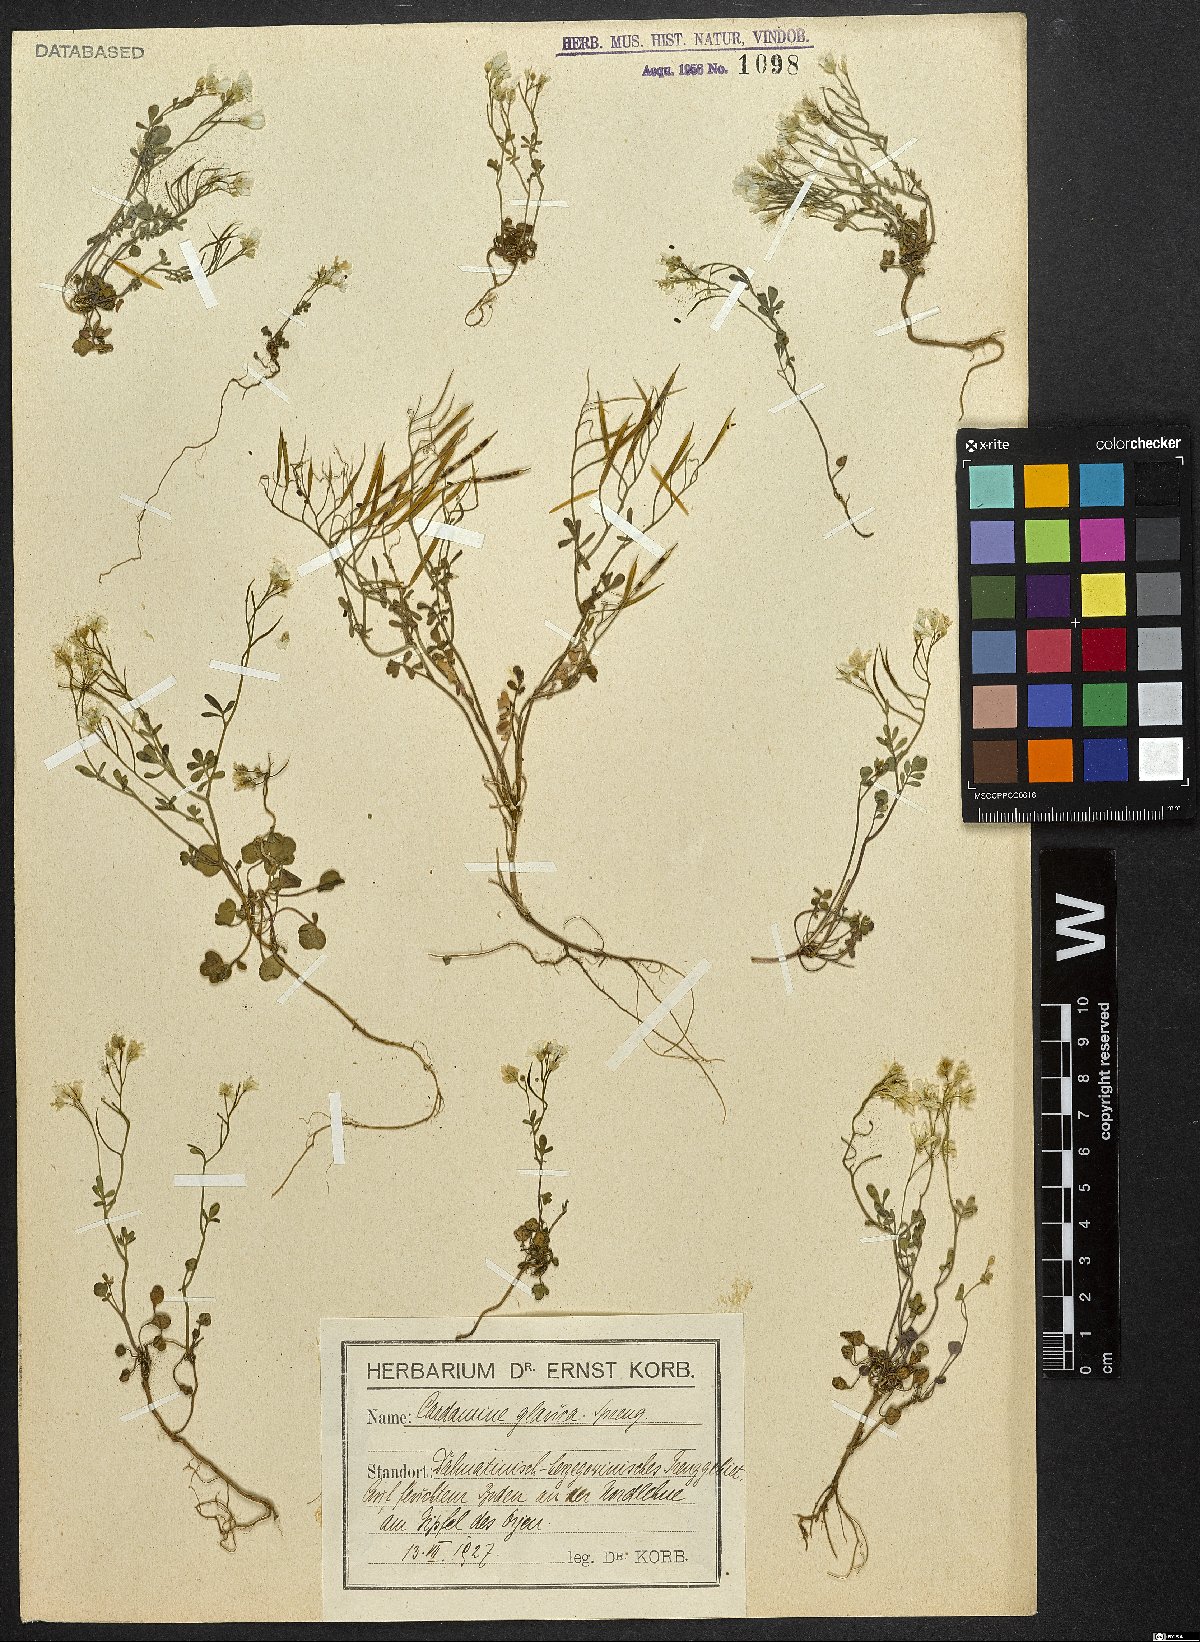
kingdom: Plantae
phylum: Tracheophyta
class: Magnoliopsida
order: Brassicales
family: Brassicaceae
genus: Cardamine
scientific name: Cardamine glauca
